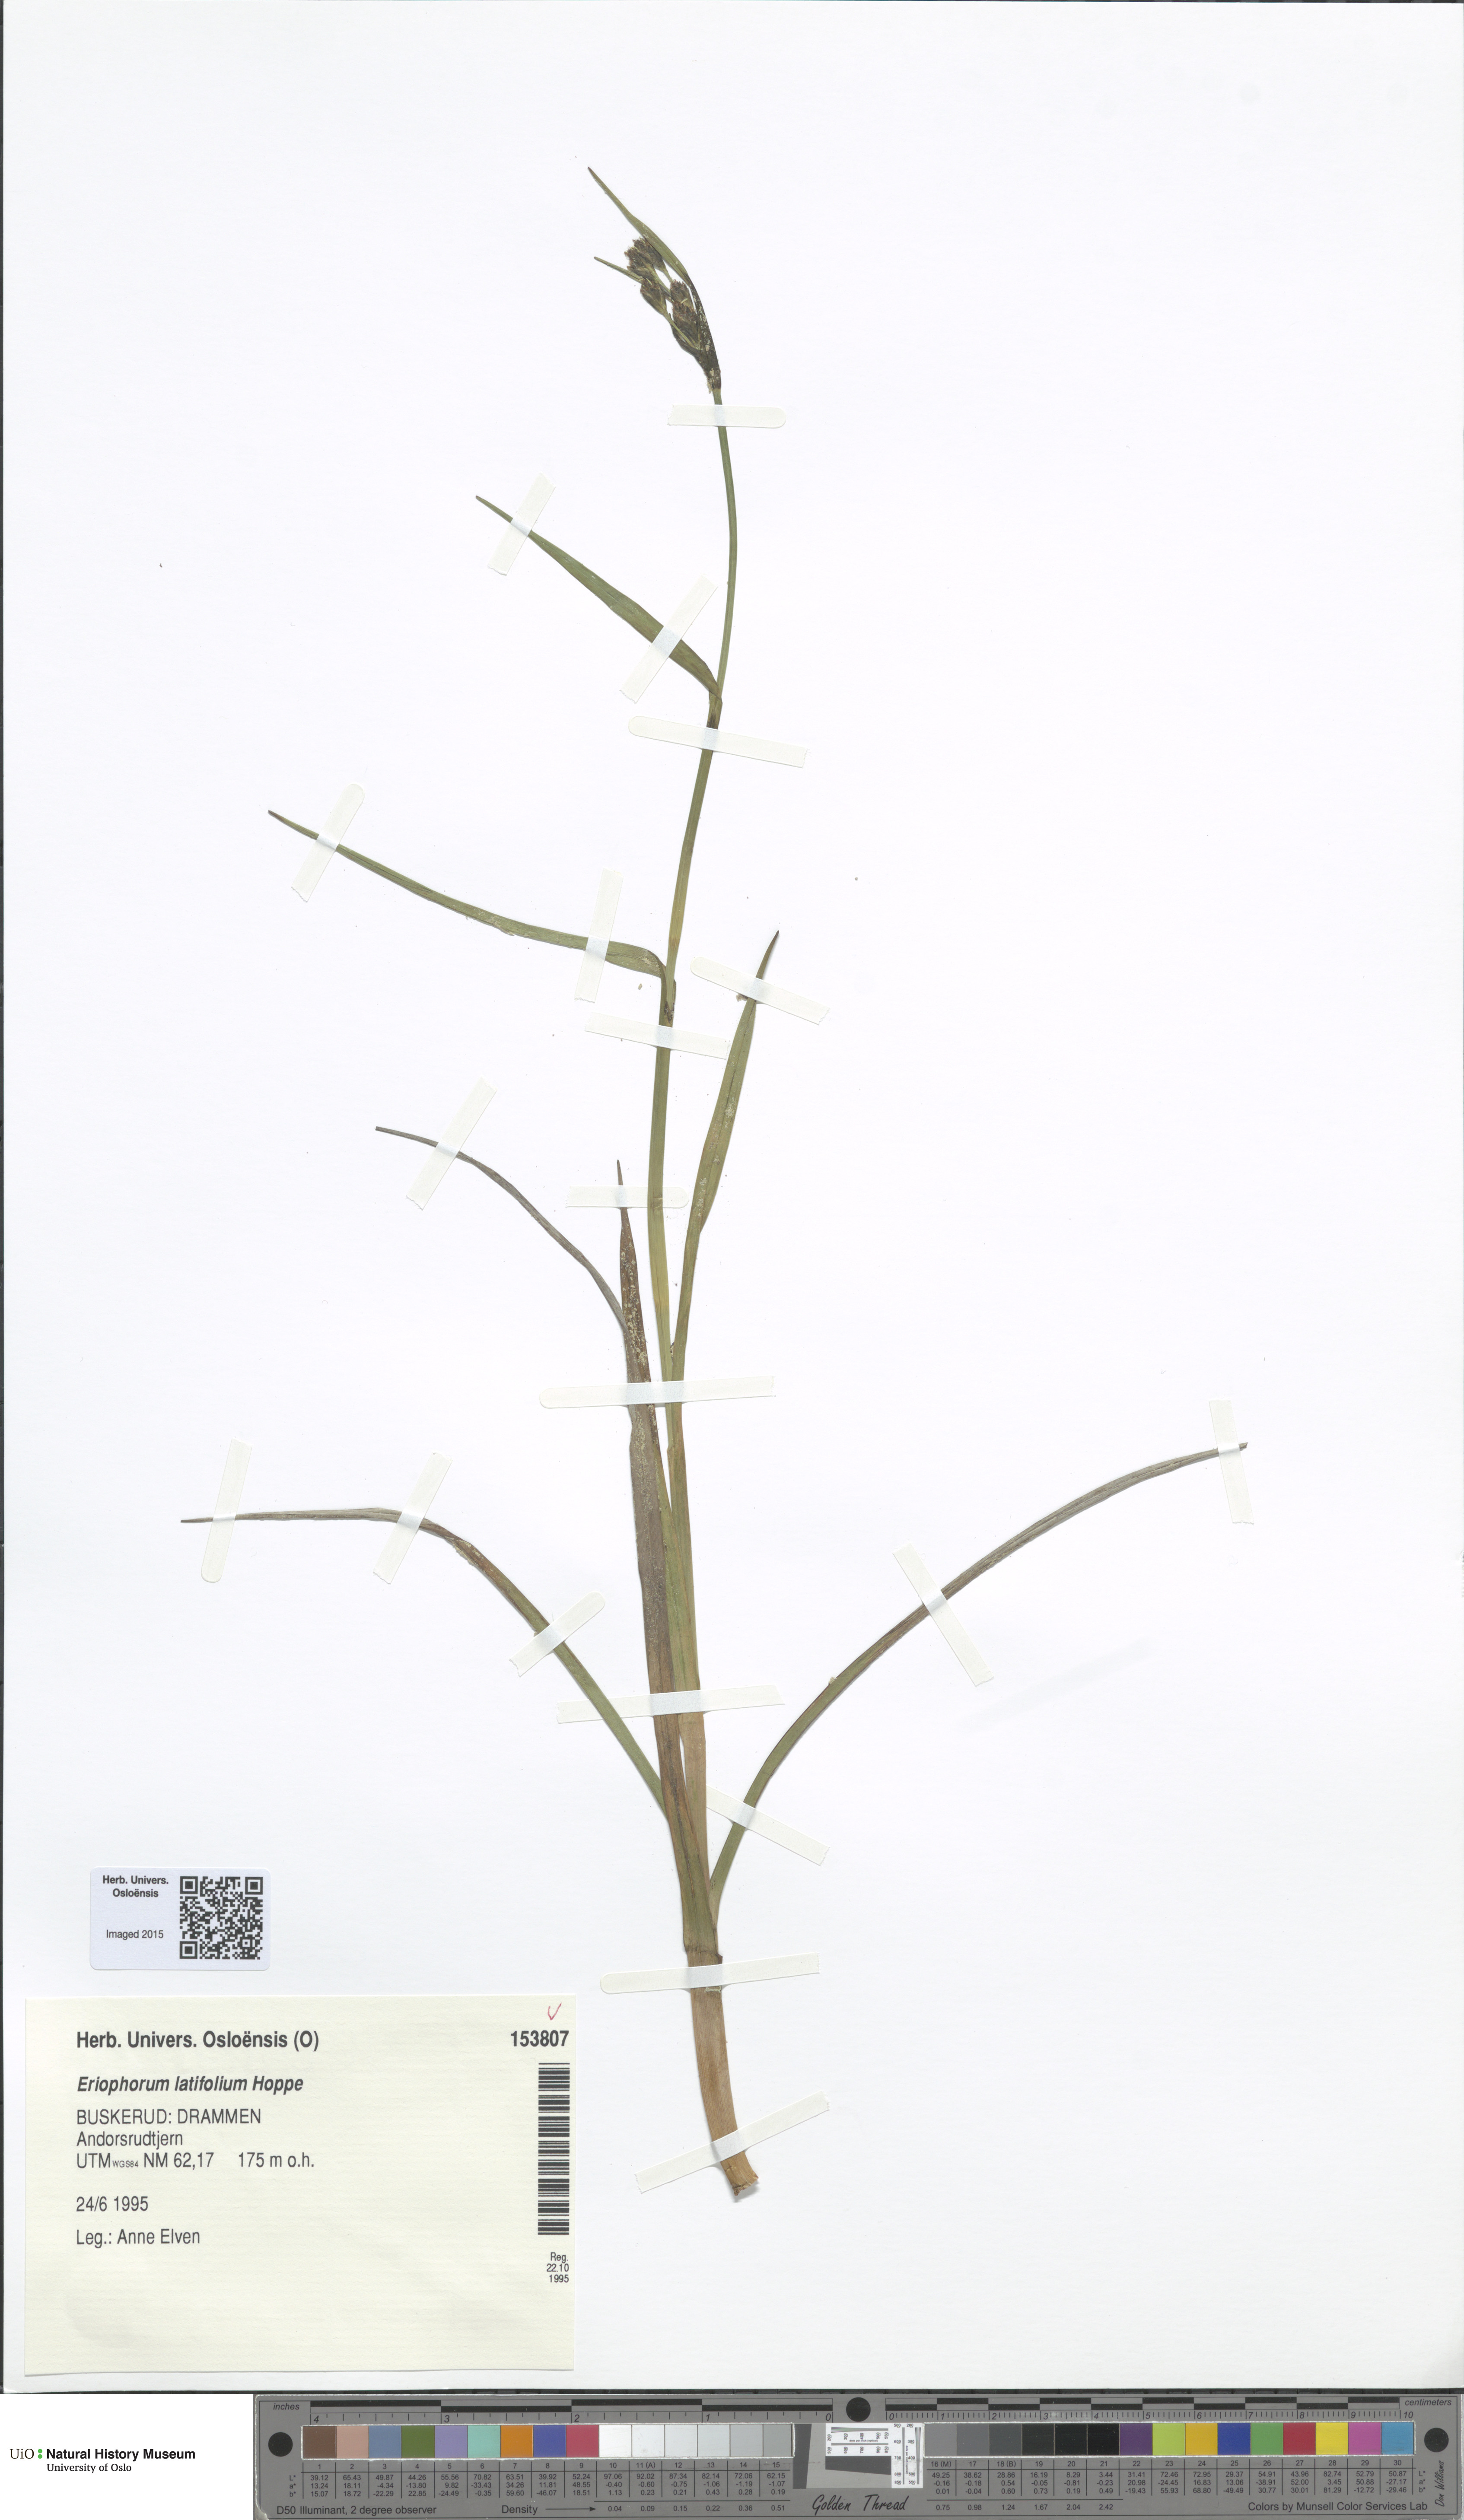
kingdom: Plantae
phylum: Tracheophyta
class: Liliopsida
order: Poales
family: Cyperaceae
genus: Eriophorum
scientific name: Eriophorum latifolium
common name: Broad-leaved cottongrass
